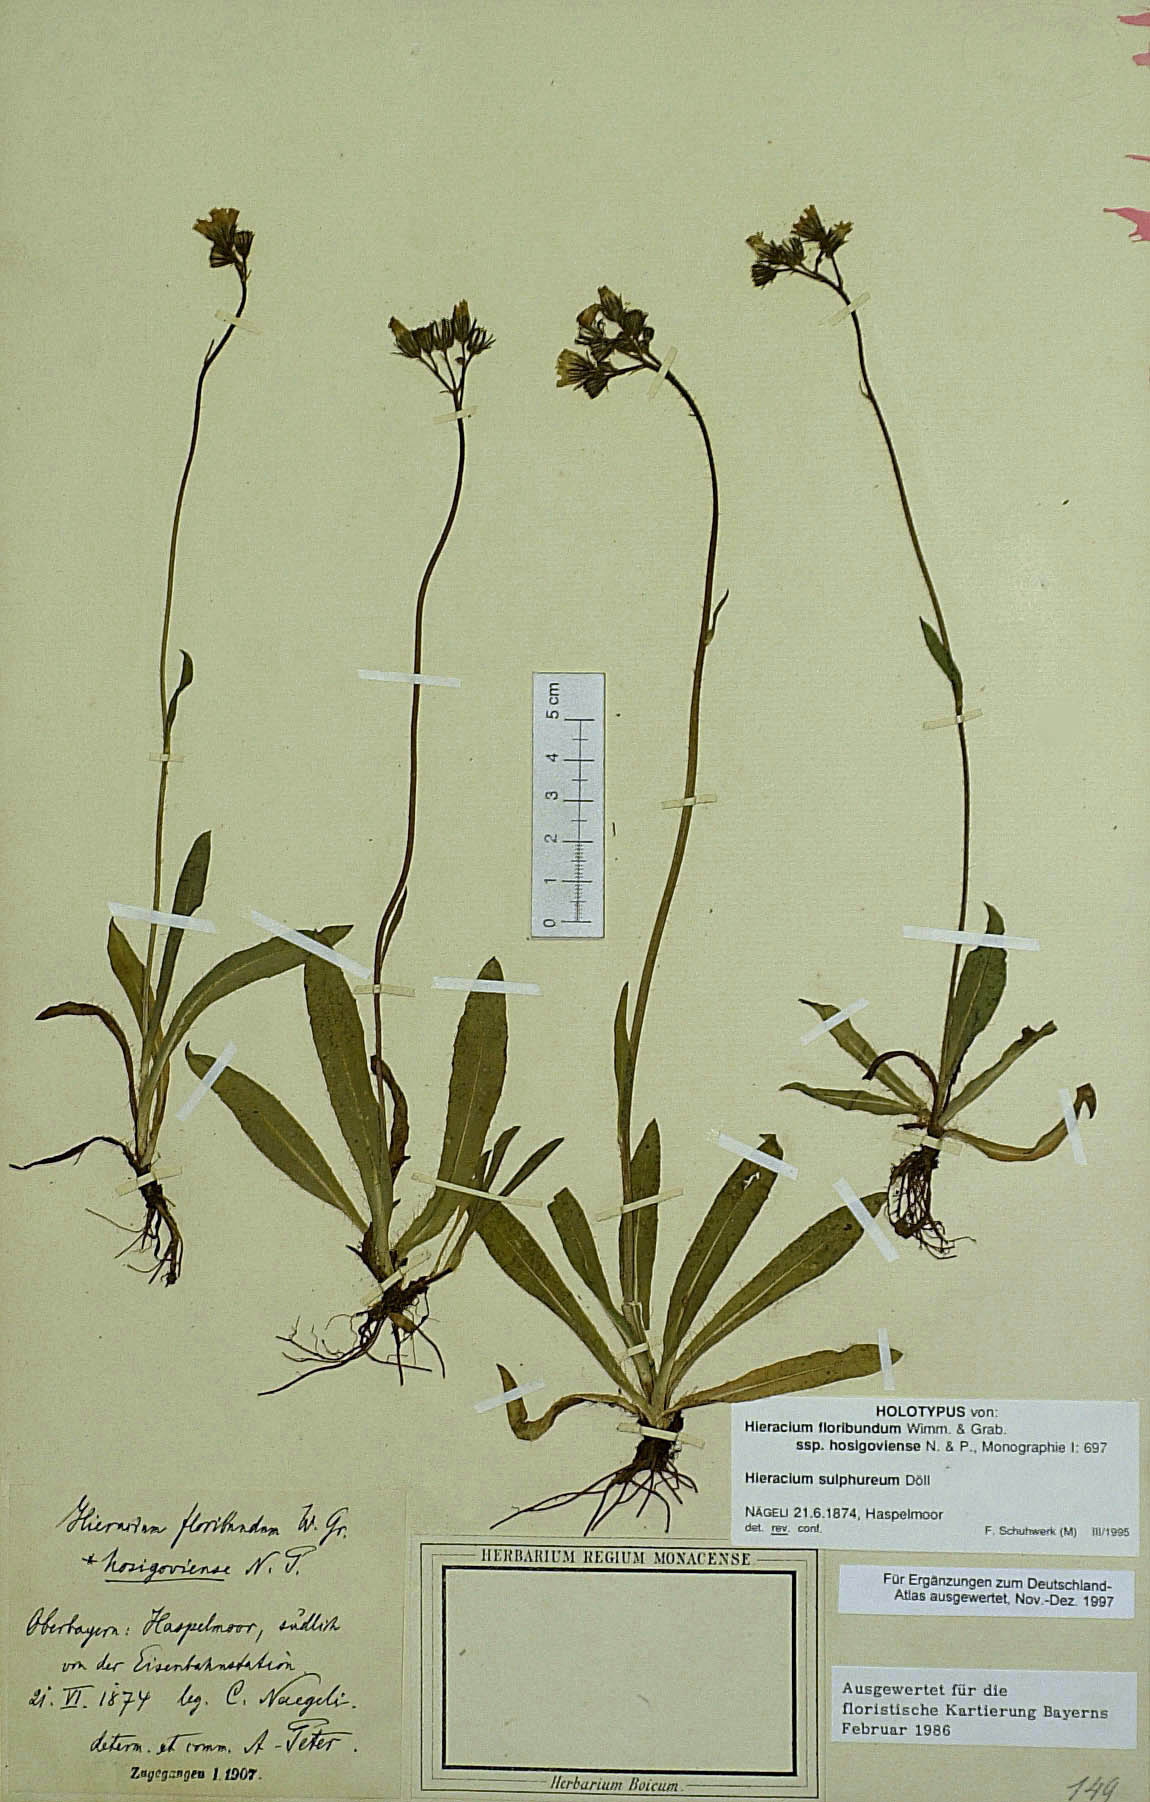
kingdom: Plantae
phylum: Tracheophyta
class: Magnoliopsida
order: Asterales
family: Asteraceae
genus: Pilosella
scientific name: Pilosella sulphurea
